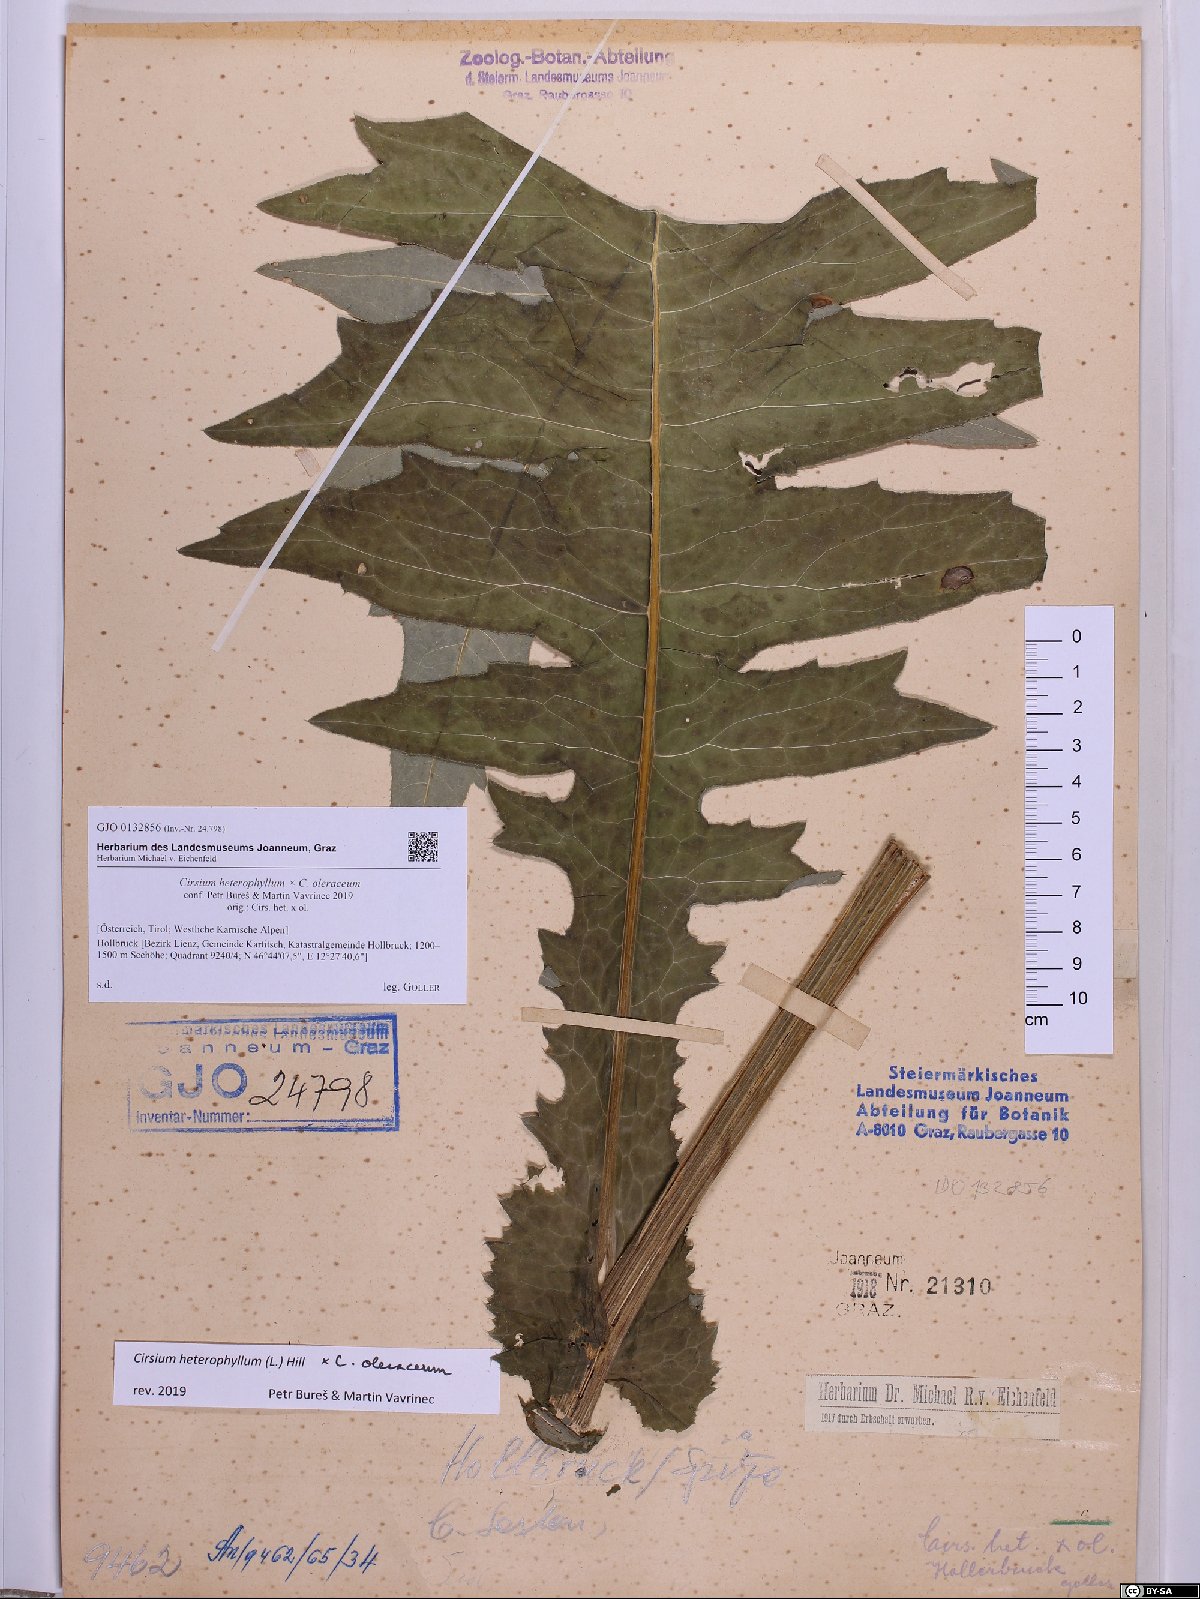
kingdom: Plantae
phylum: Tracheophyta
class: Magnoliopsida
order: Asterales
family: Asteraceae
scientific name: Asteraceae
